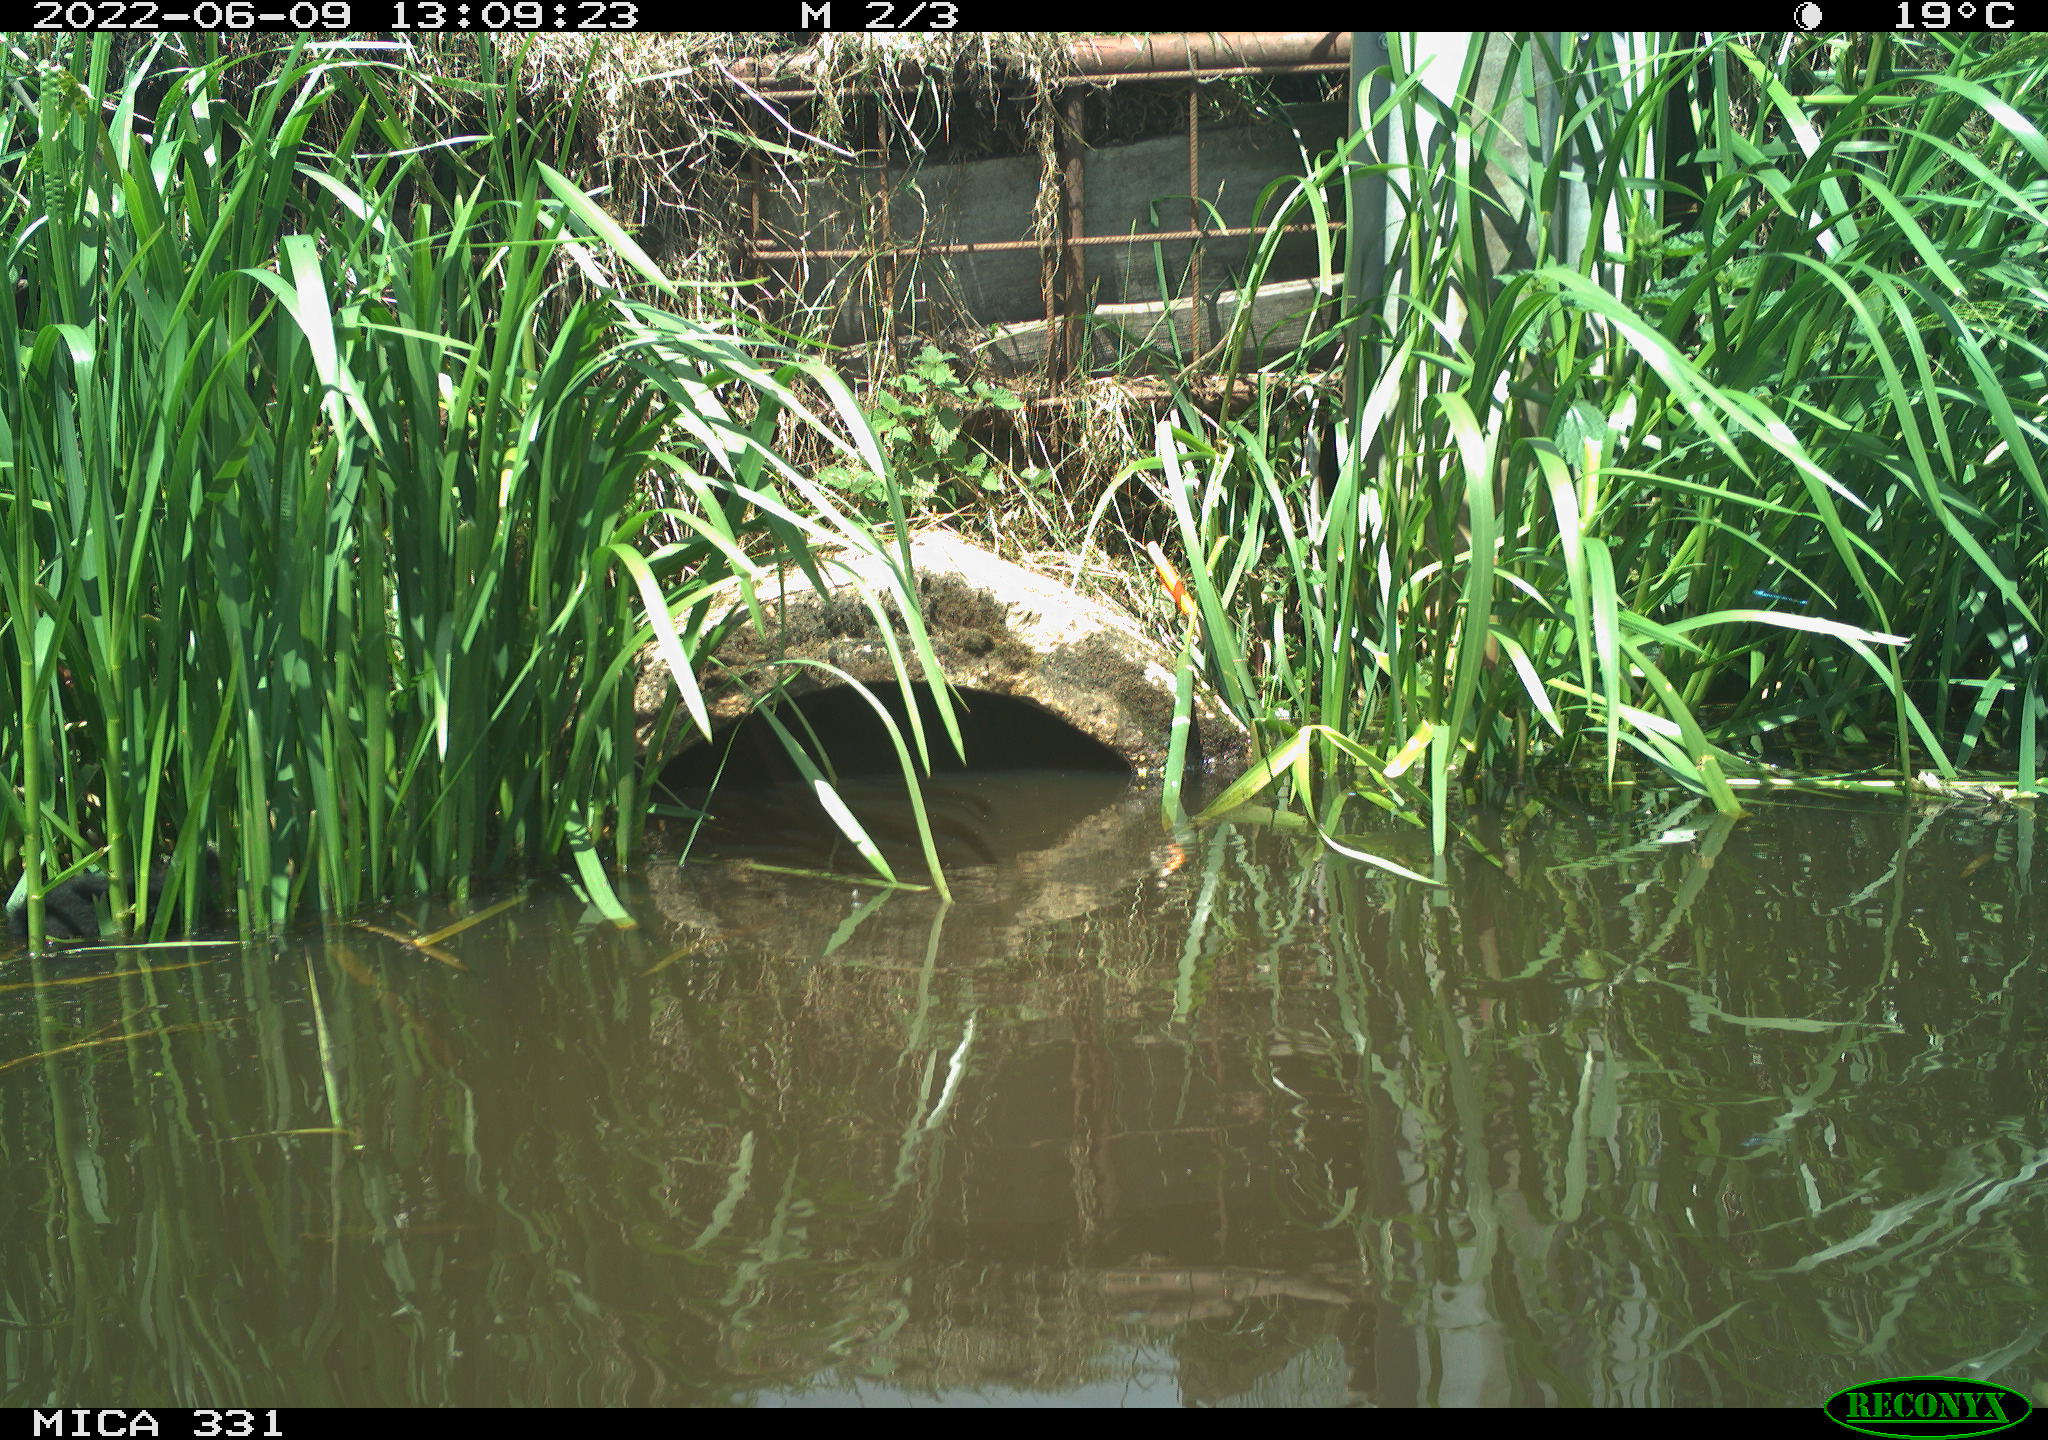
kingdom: Animalia
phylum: Chordata
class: Aves
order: Gruiformes
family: Rallidae
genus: Fulica
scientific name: Fulica atra
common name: Eurasian coot
